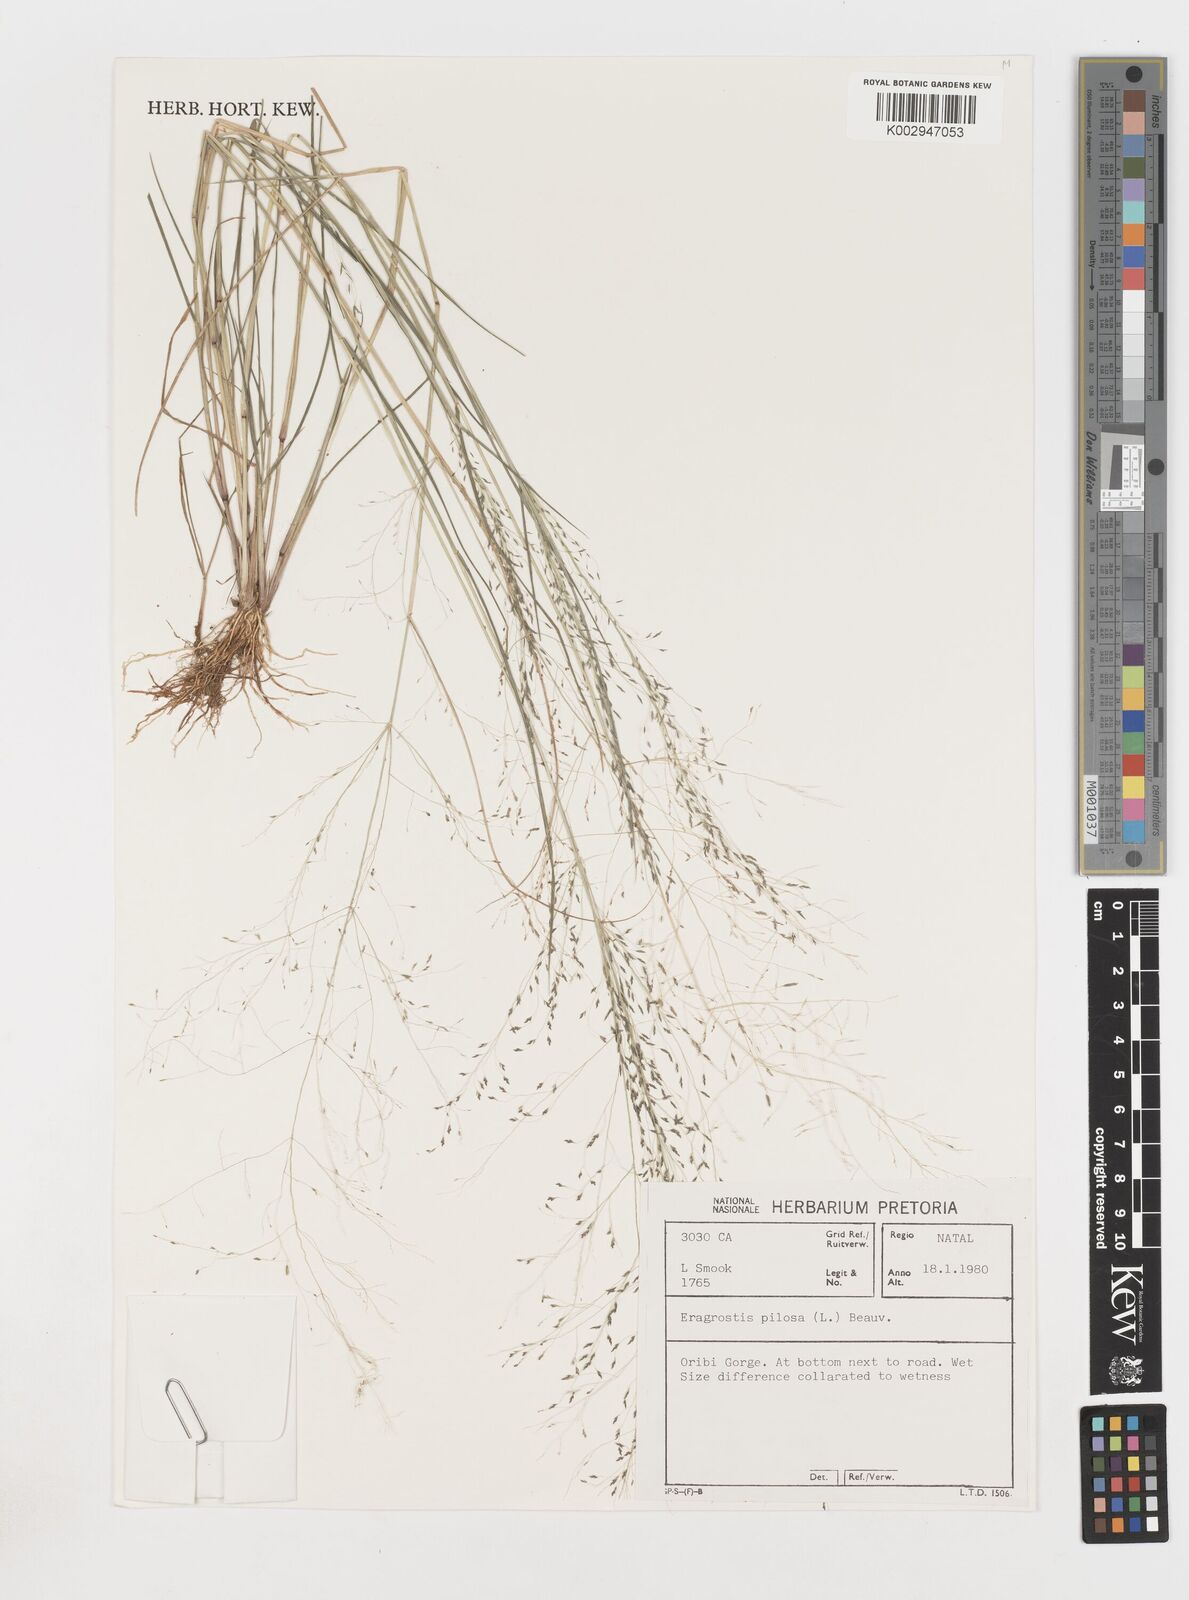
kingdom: Plantae
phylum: Tracheophyta
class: Liliopsida
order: Poales
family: Poaceae
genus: Eragrostis
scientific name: Eragrostis pilosa
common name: Indian lovegrass
